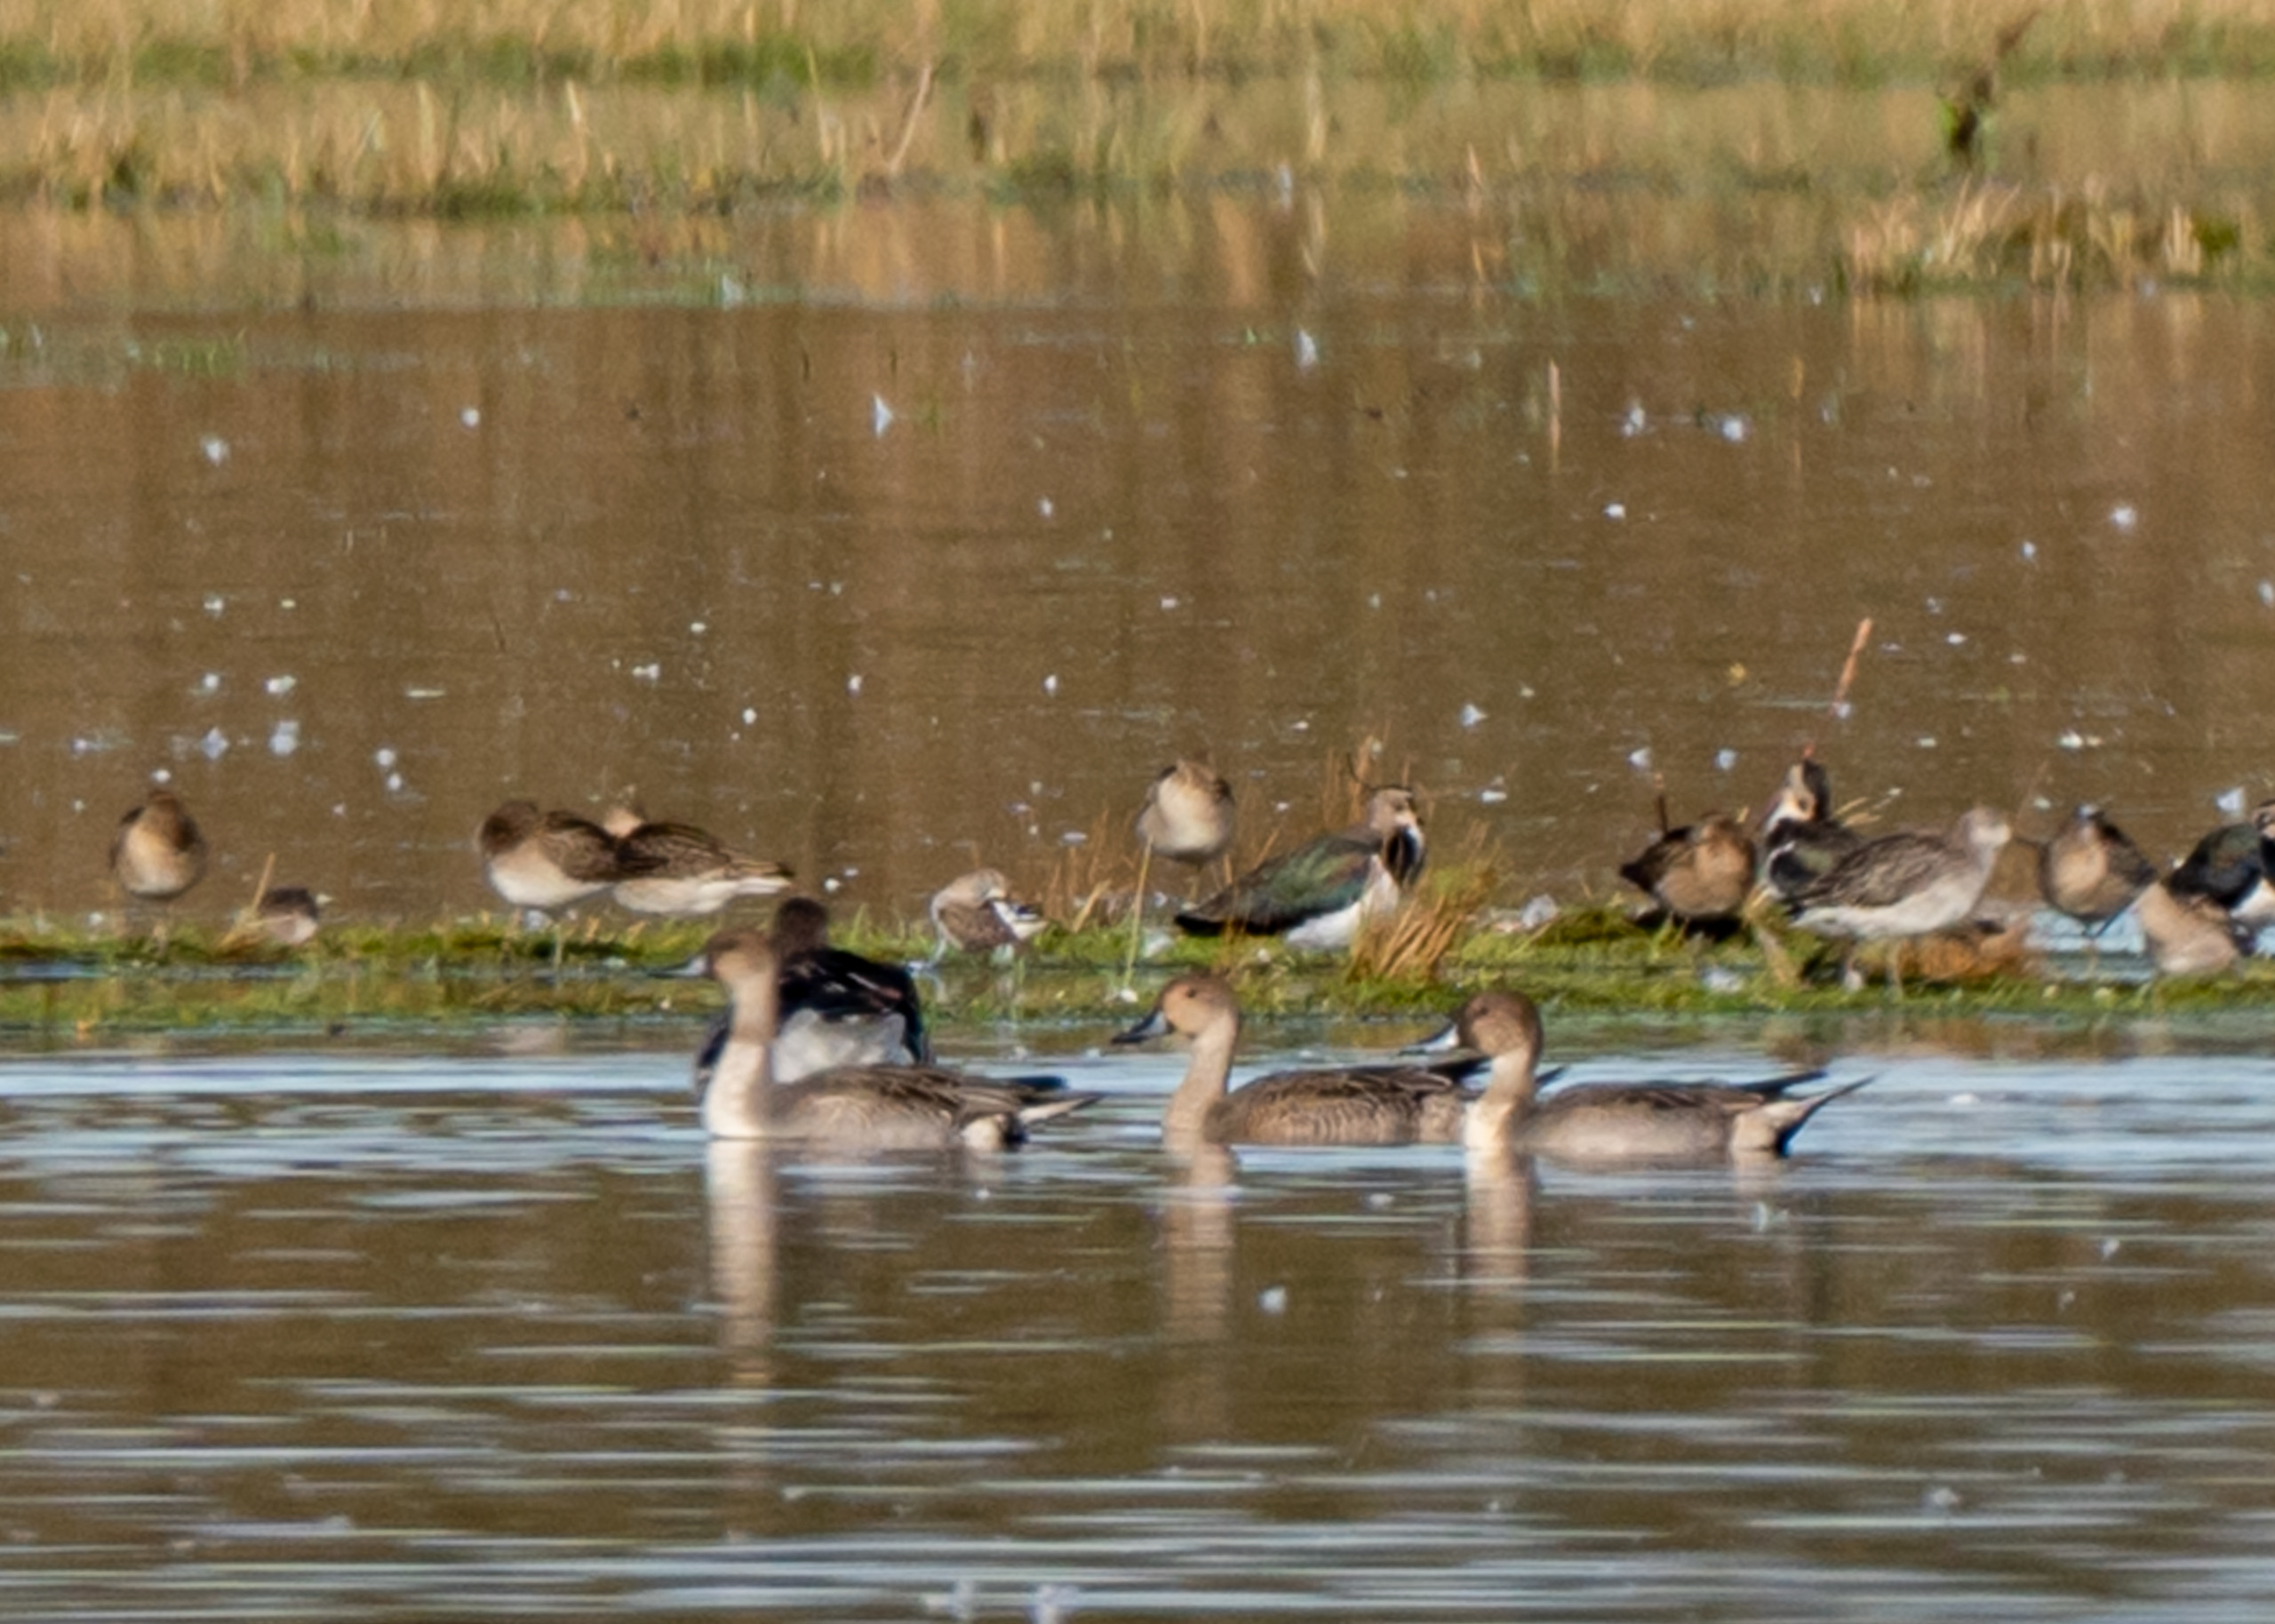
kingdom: Animalia
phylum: Chordata
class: Aves
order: Anseriformes
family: Anatidae
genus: Anas
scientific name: Anas acuta
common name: Spidsand
